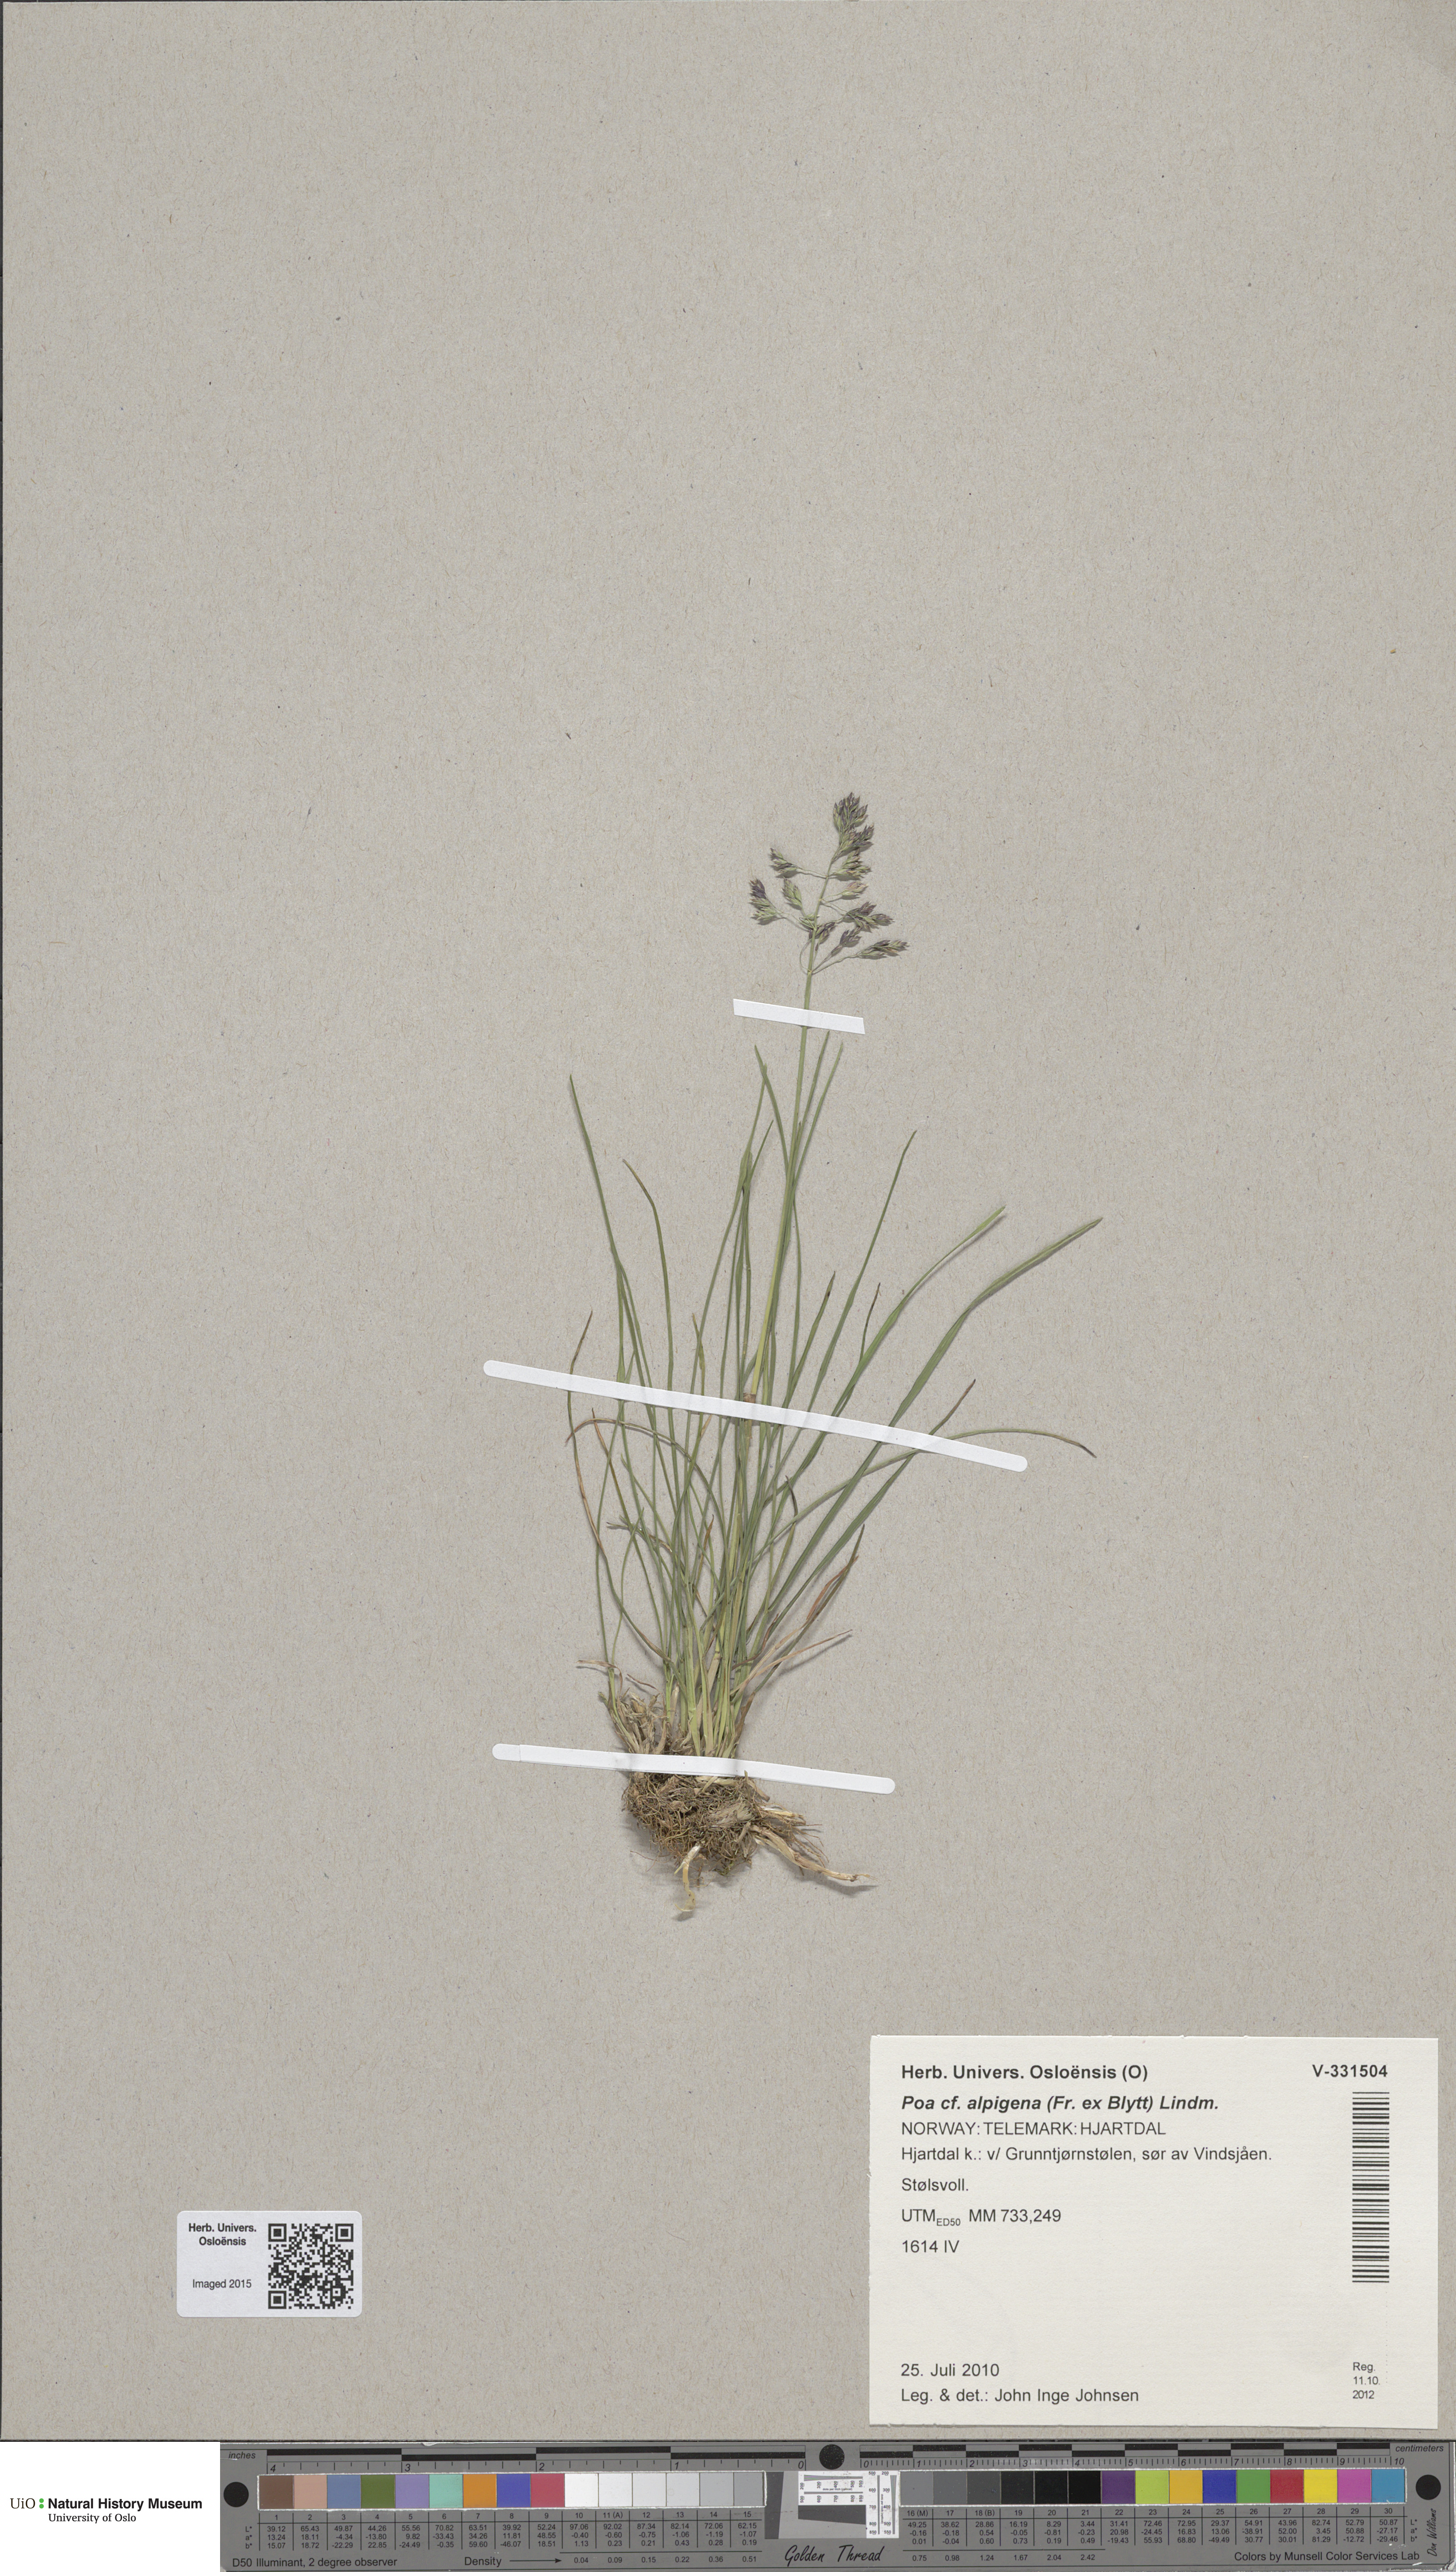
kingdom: Plantae
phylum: Tracheophyta
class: Liliopsida
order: Poales
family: Poaceae
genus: Poa
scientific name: Poa alpigena
